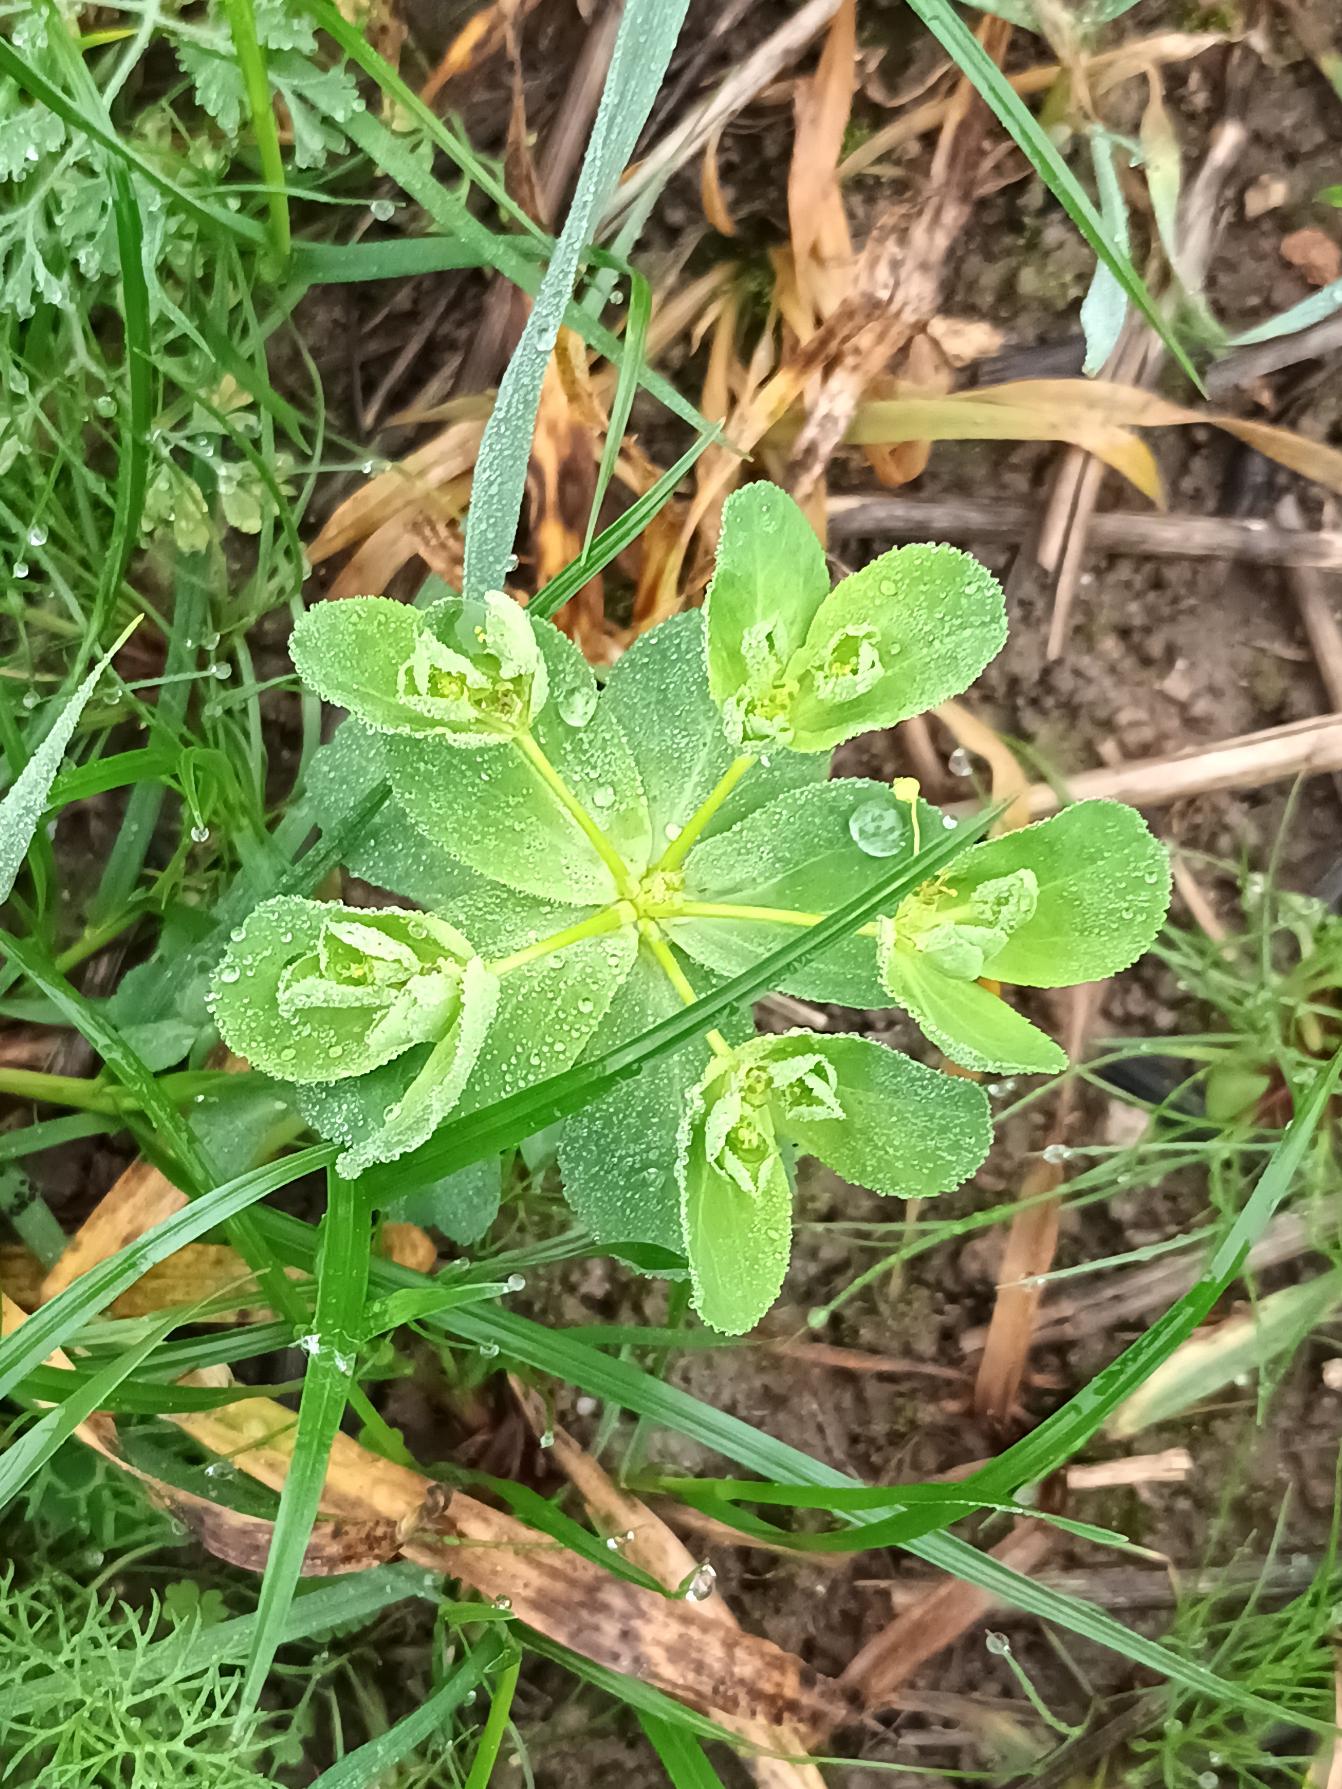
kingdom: Plantae
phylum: Tracheophyta
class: Magnoliopsida
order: Malpighiales
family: Euphorbiaceae
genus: Euphorbia
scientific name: Euphorbia helioscopia
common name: Skærm-vortemælk
